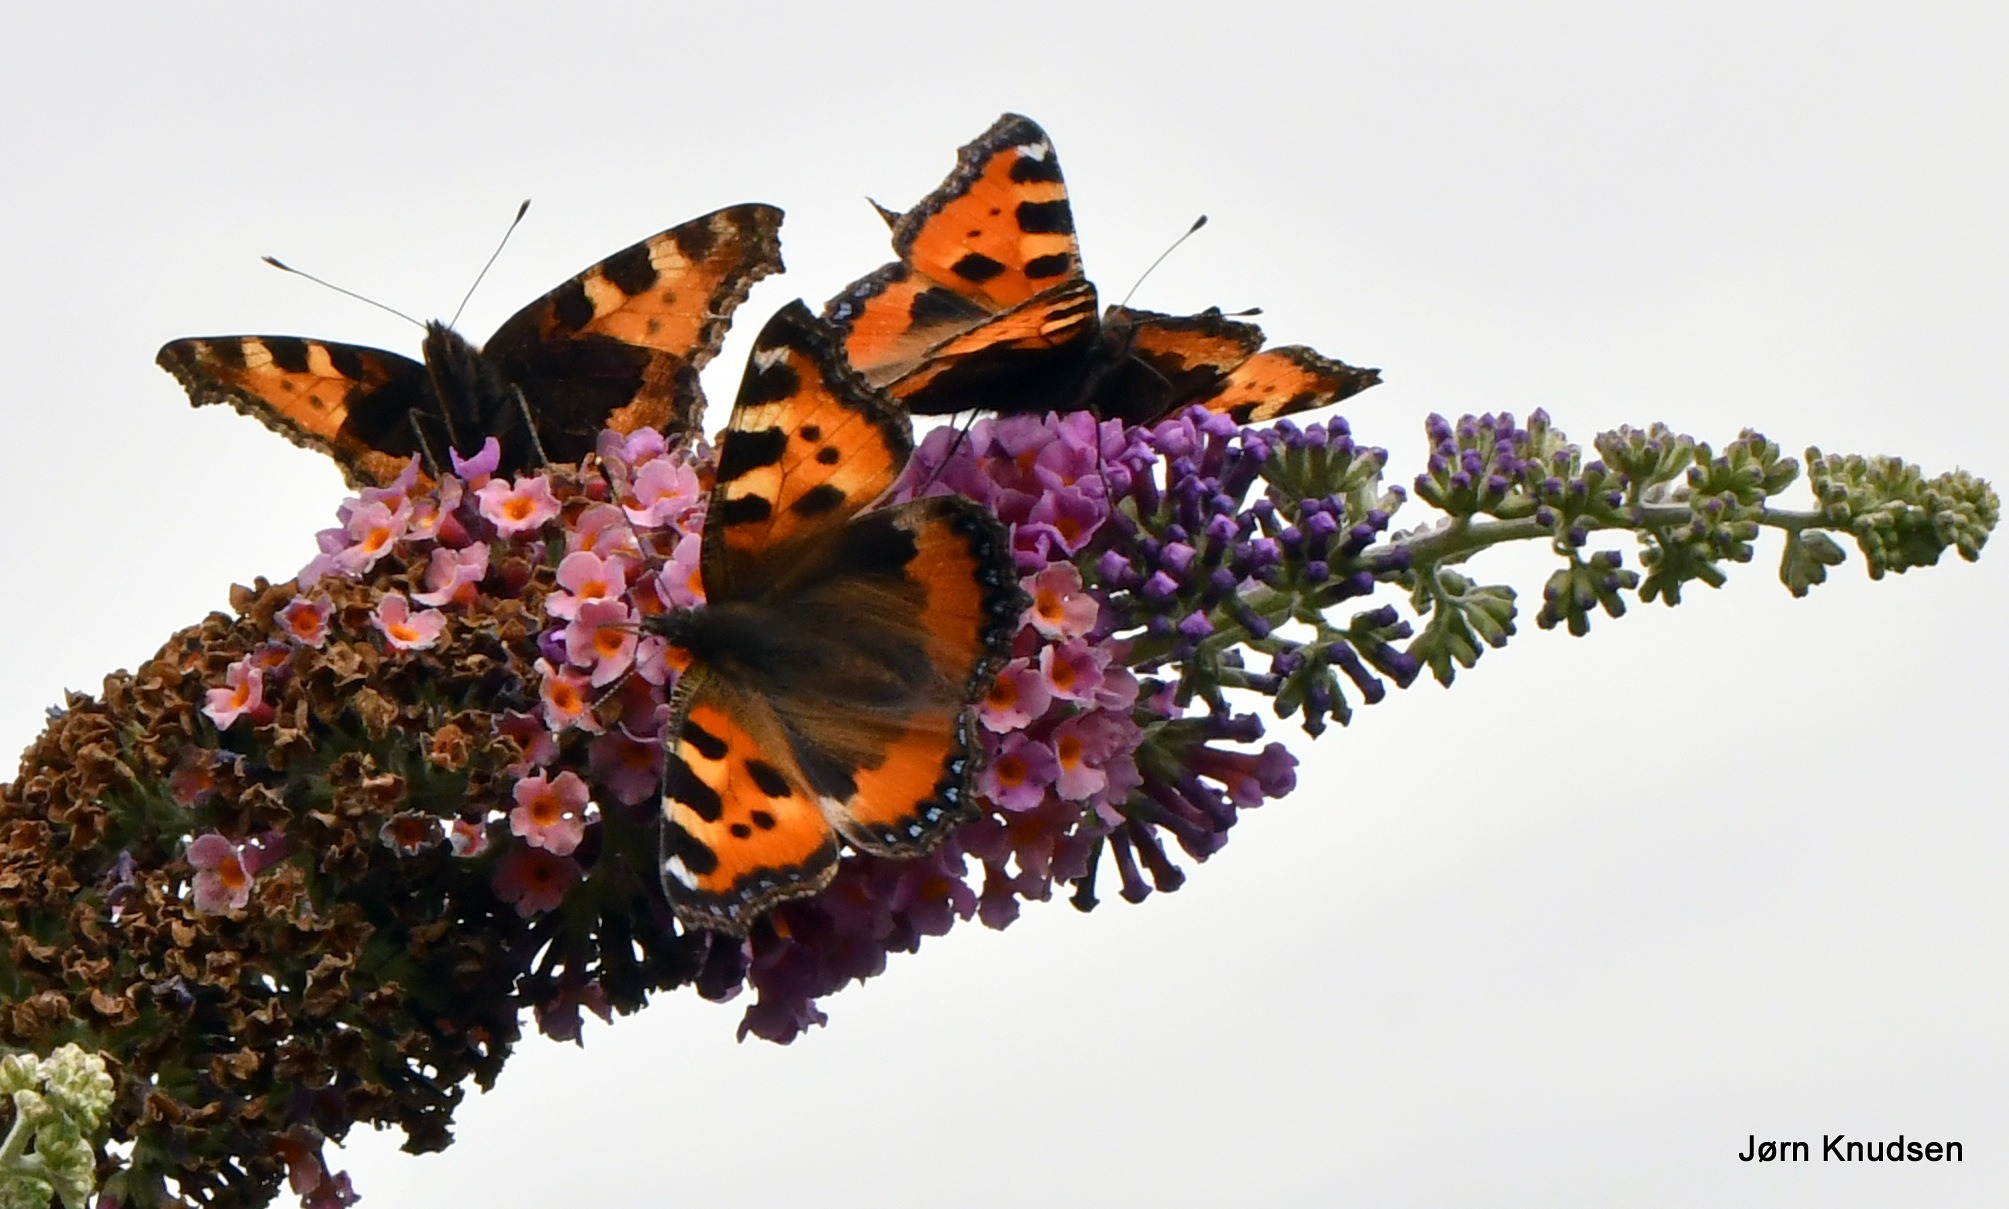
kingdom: Animalia
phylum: Arthropoda
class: Insecta
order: Lepidoptera
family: Nymphalidae
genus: Aglais
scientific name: Aglais urticae
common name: Nældens takvinge
